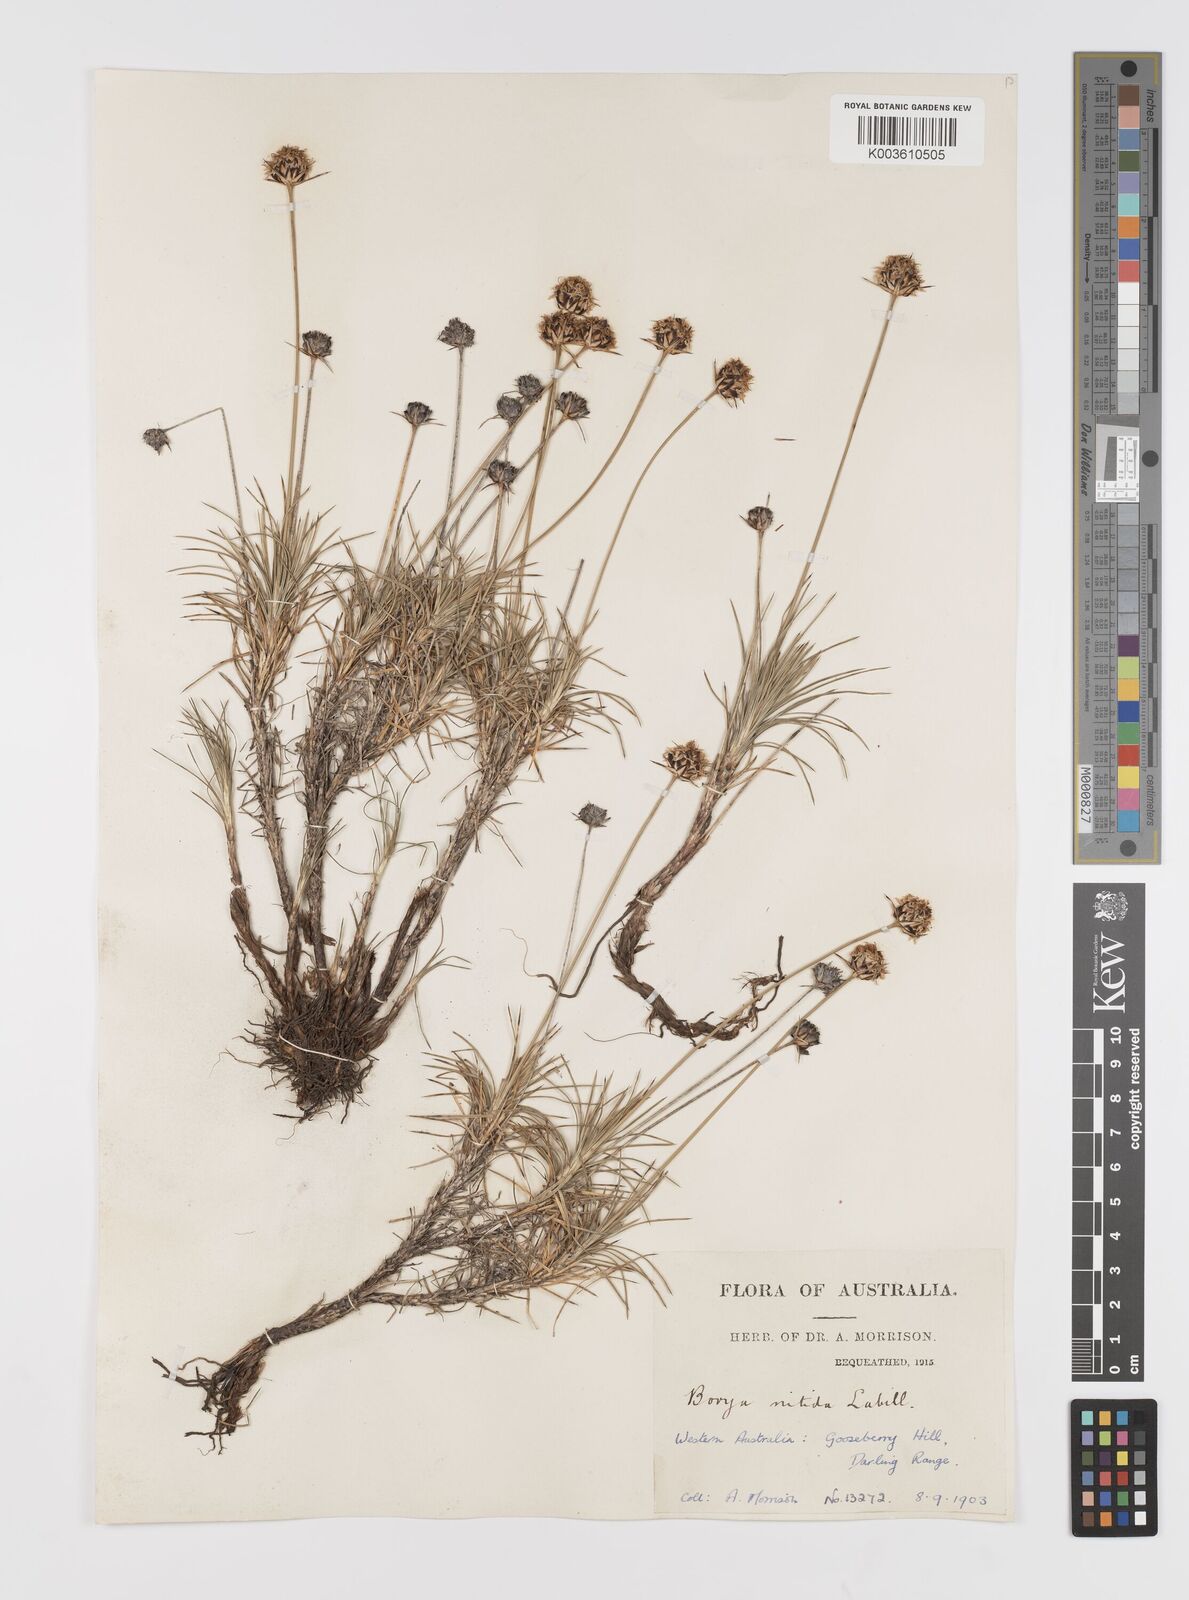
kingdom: Plantae
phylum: Tracheophyta
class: Liliopsida
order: Asparagales
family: Boryaceae
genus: Borya
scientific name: Borya nitida
